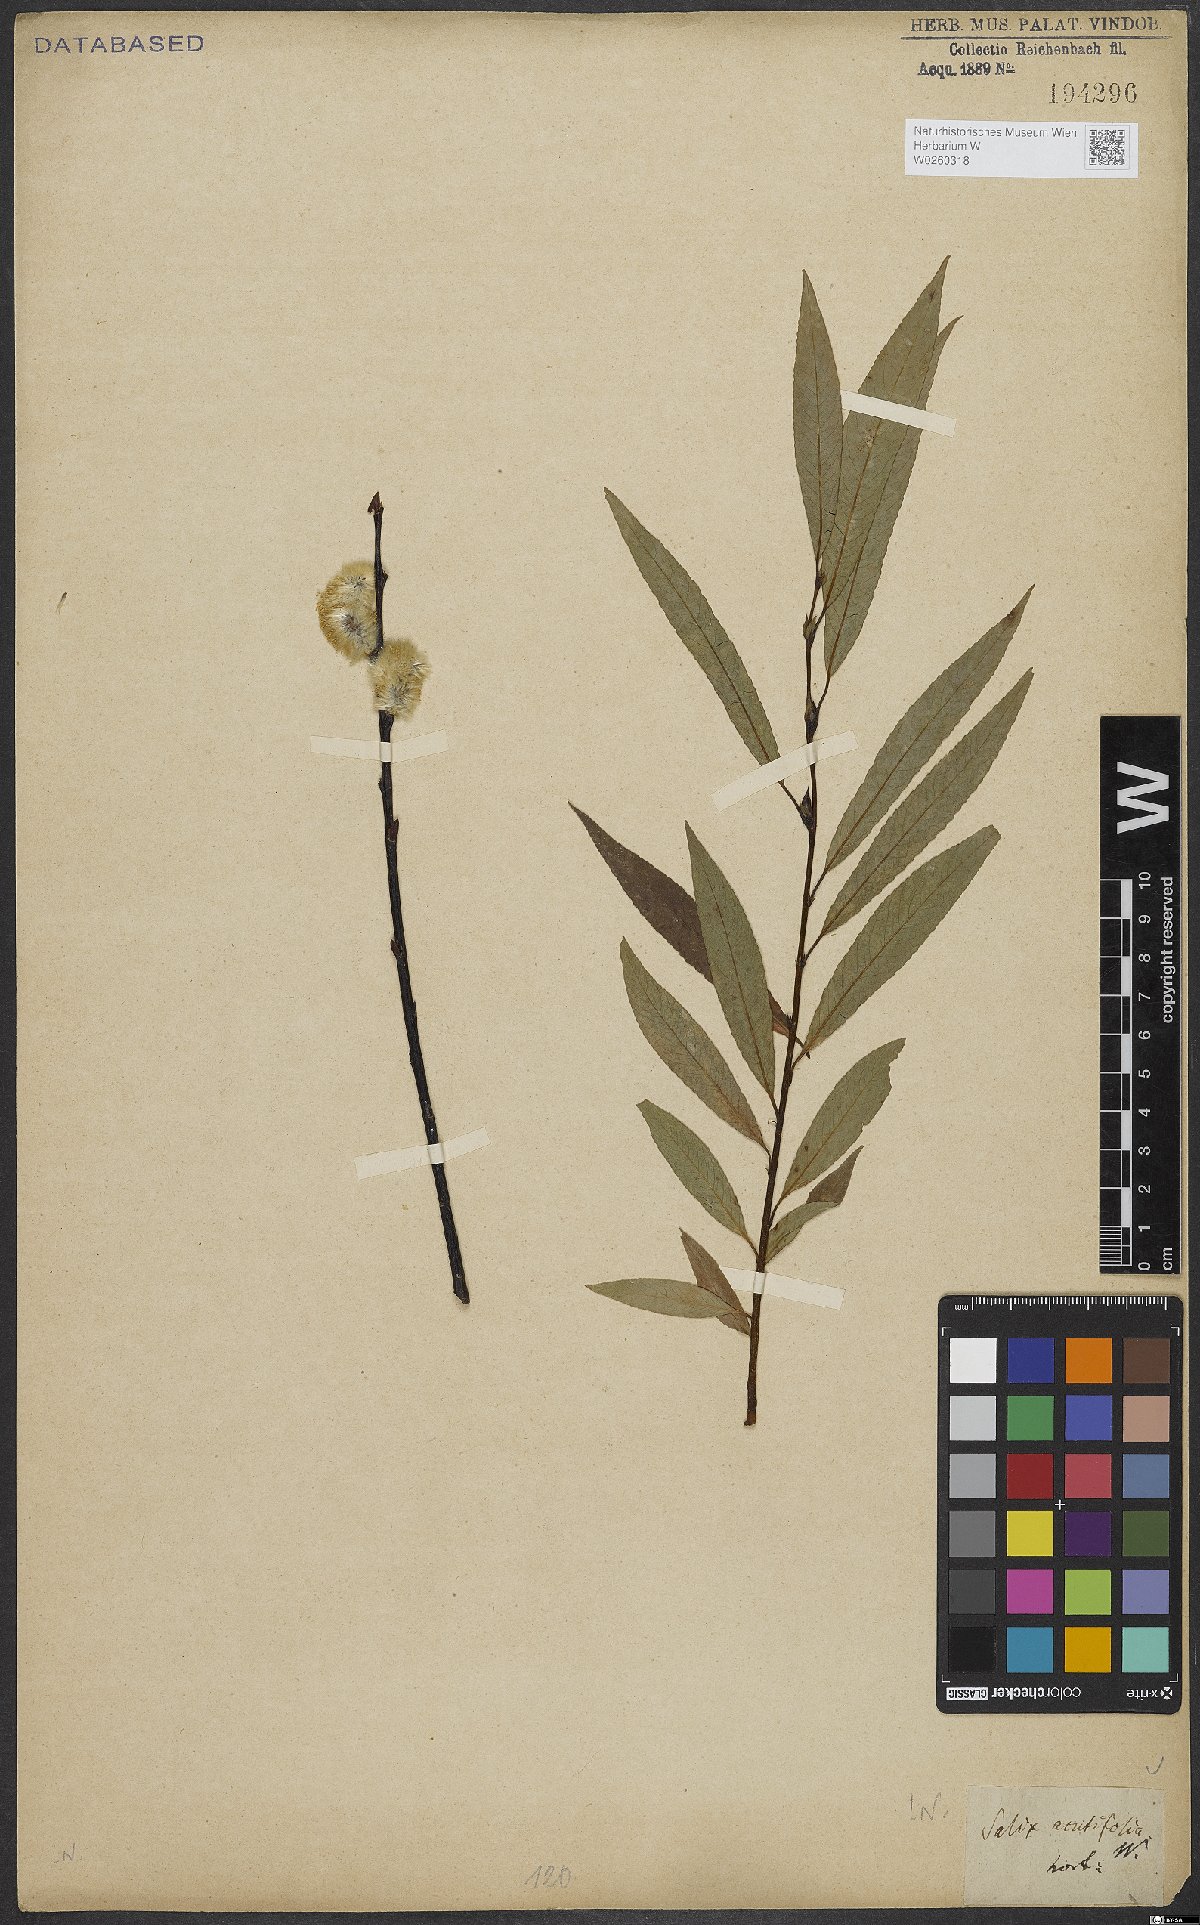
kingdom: Plantae
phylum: Tracheophyta
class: Magnoliopsida
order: Malpighiales
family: Salicaceae
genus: Salix
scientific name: Salix acutifolia
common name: Siberian violet-willow
